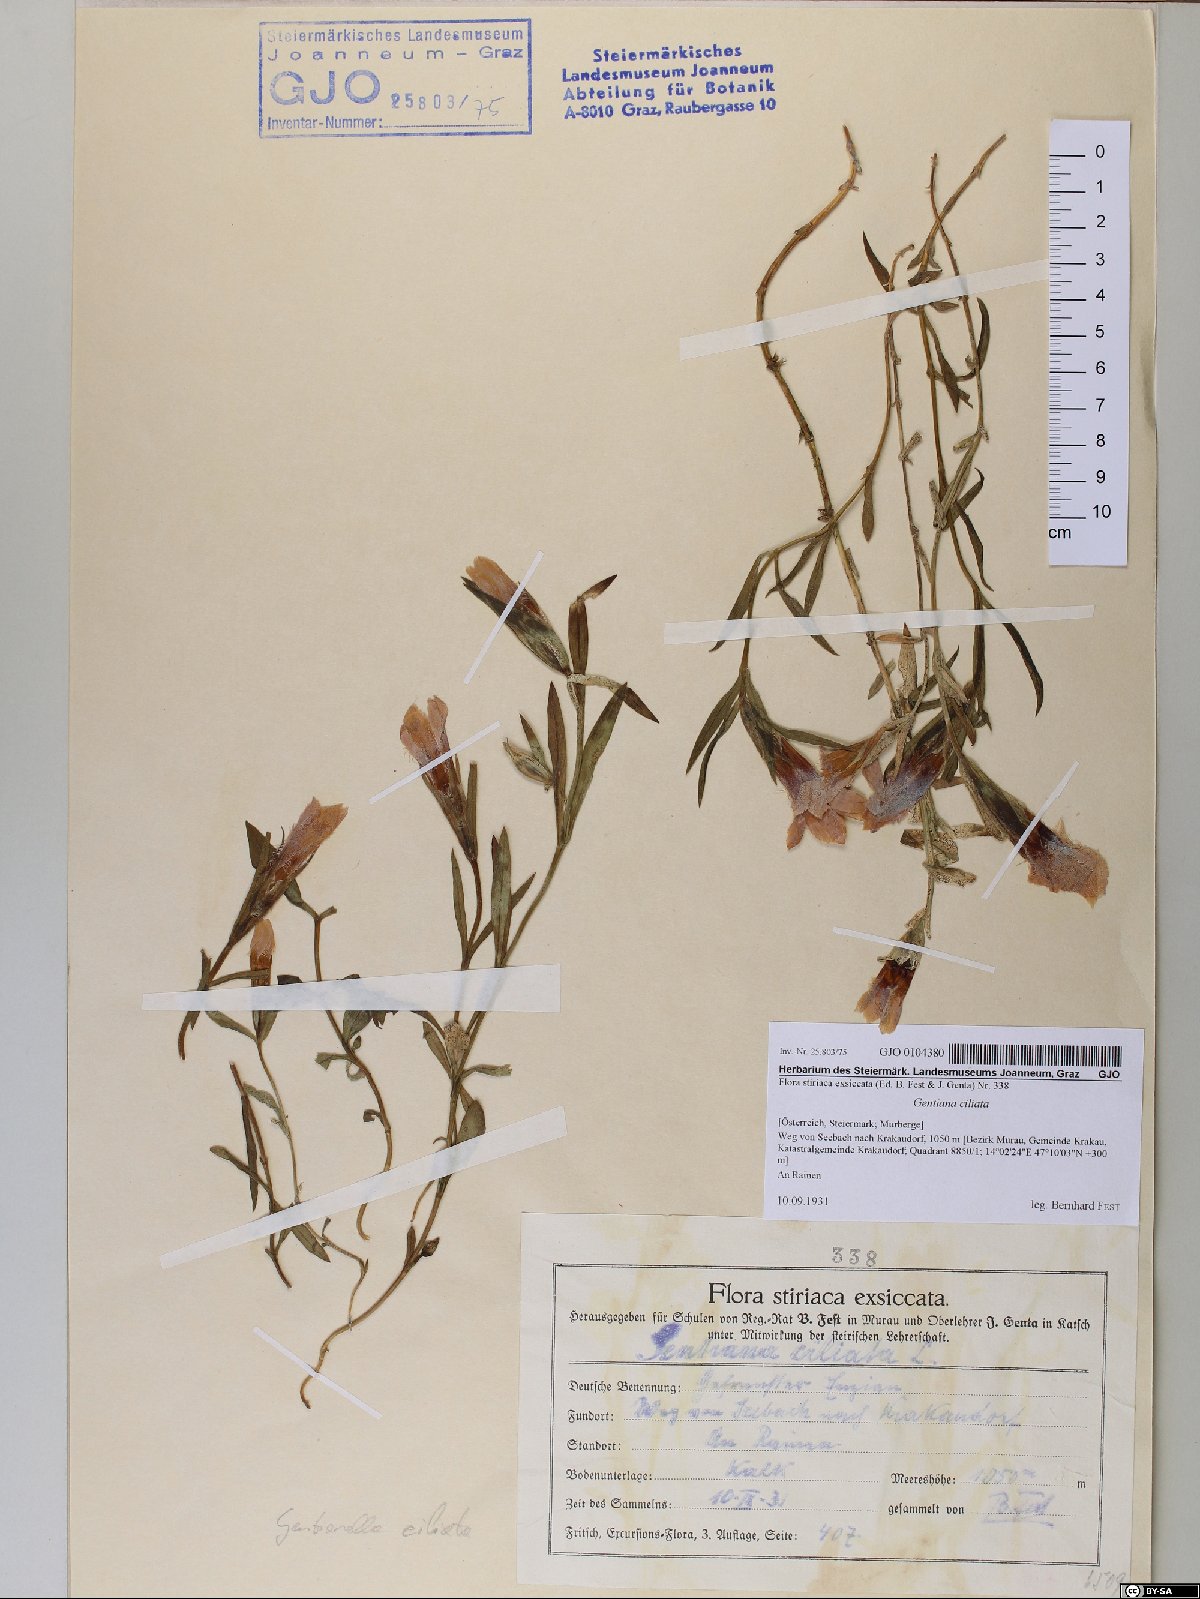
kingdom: Plantae
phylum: Tracheophyta
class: Magnoliopsida
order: Gentianales
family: Gentianaceae
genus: Gentianopsis
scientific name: Gentianopsis ciliata
